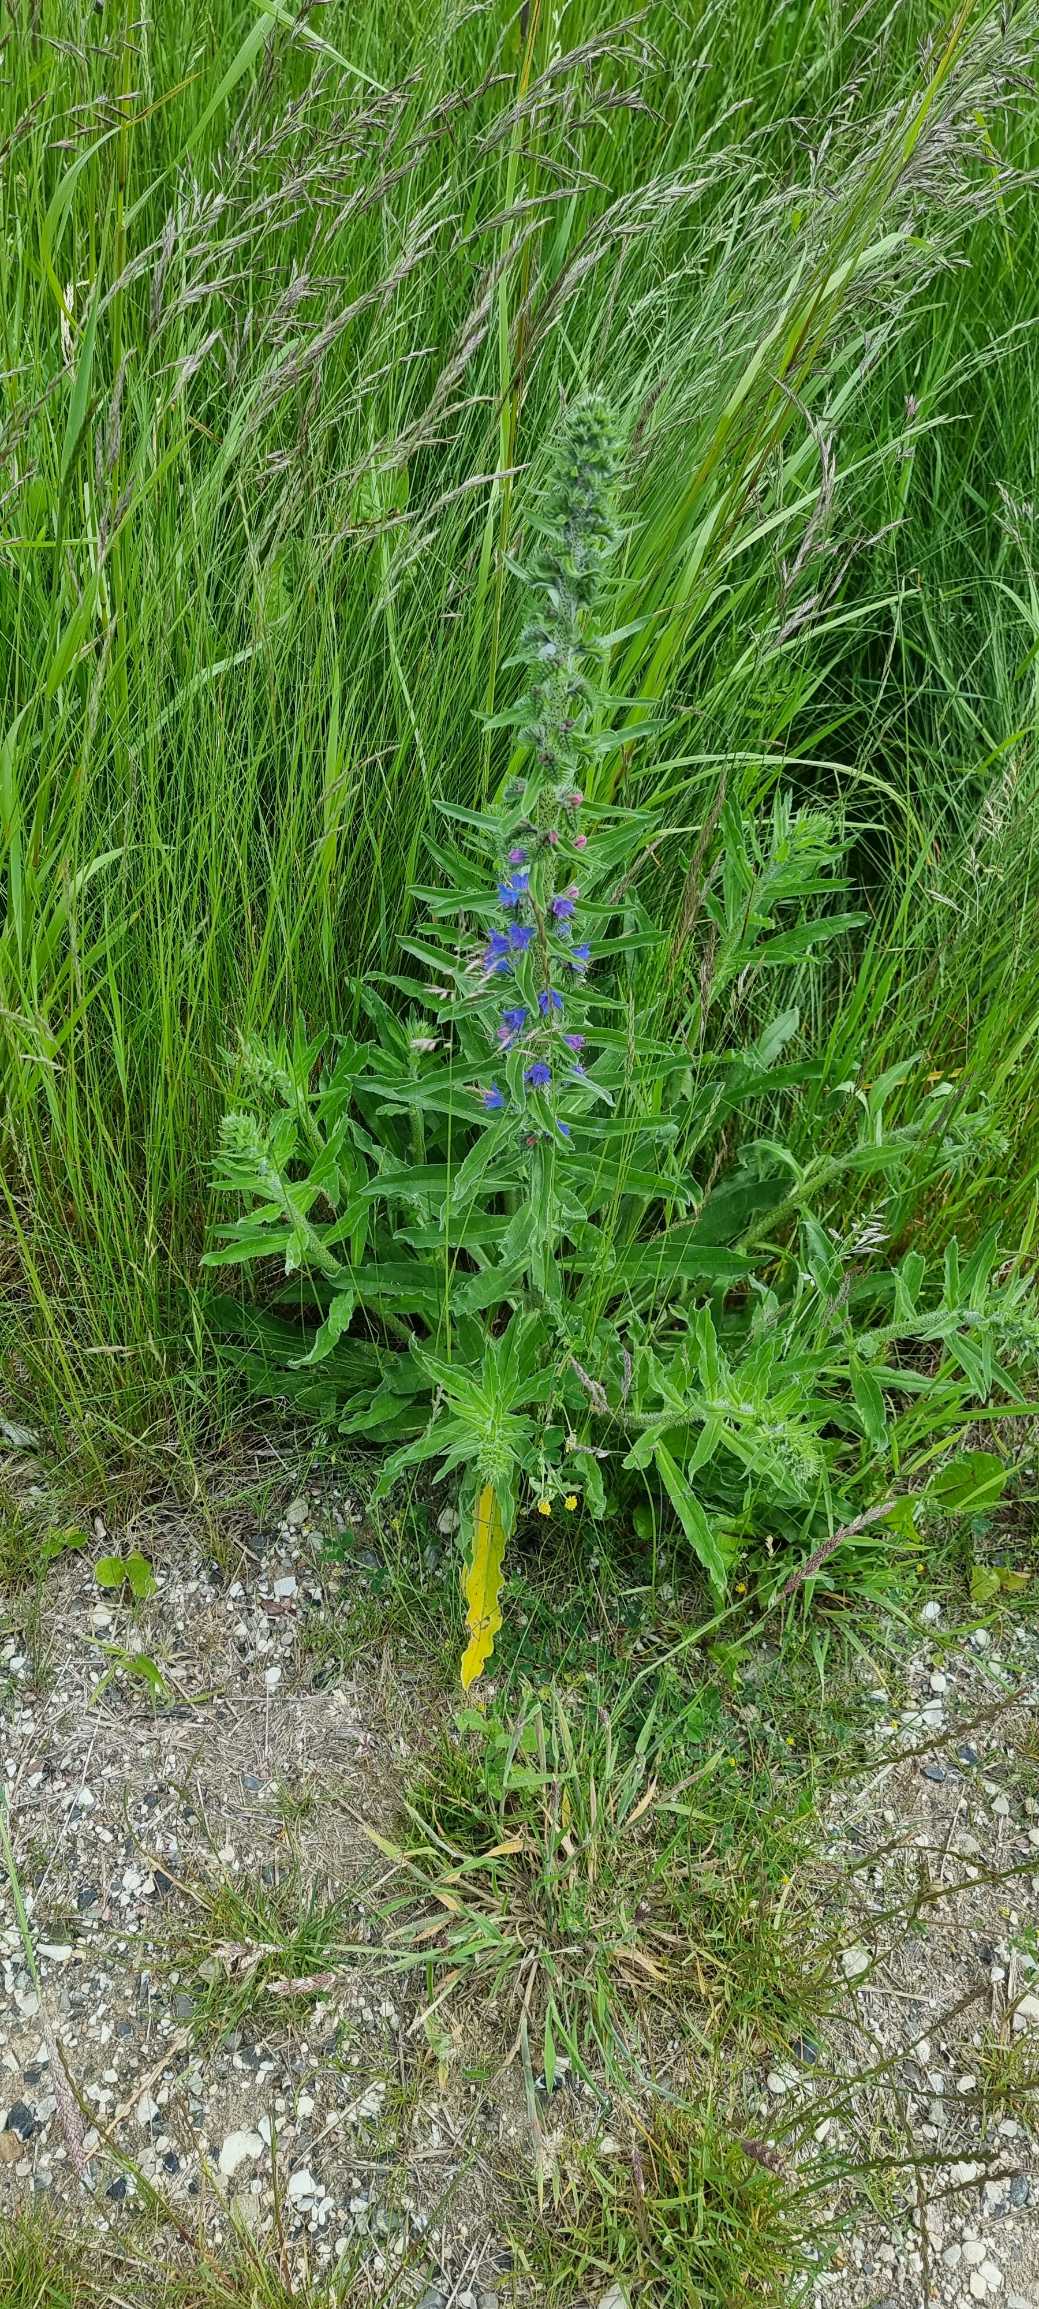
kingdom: Plantae
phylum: Tracheophyta
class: Magnoliopsida
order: Boraginales
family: Boraginaceae
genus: Echium
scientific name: Echium vulgare
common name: Slangehoved
